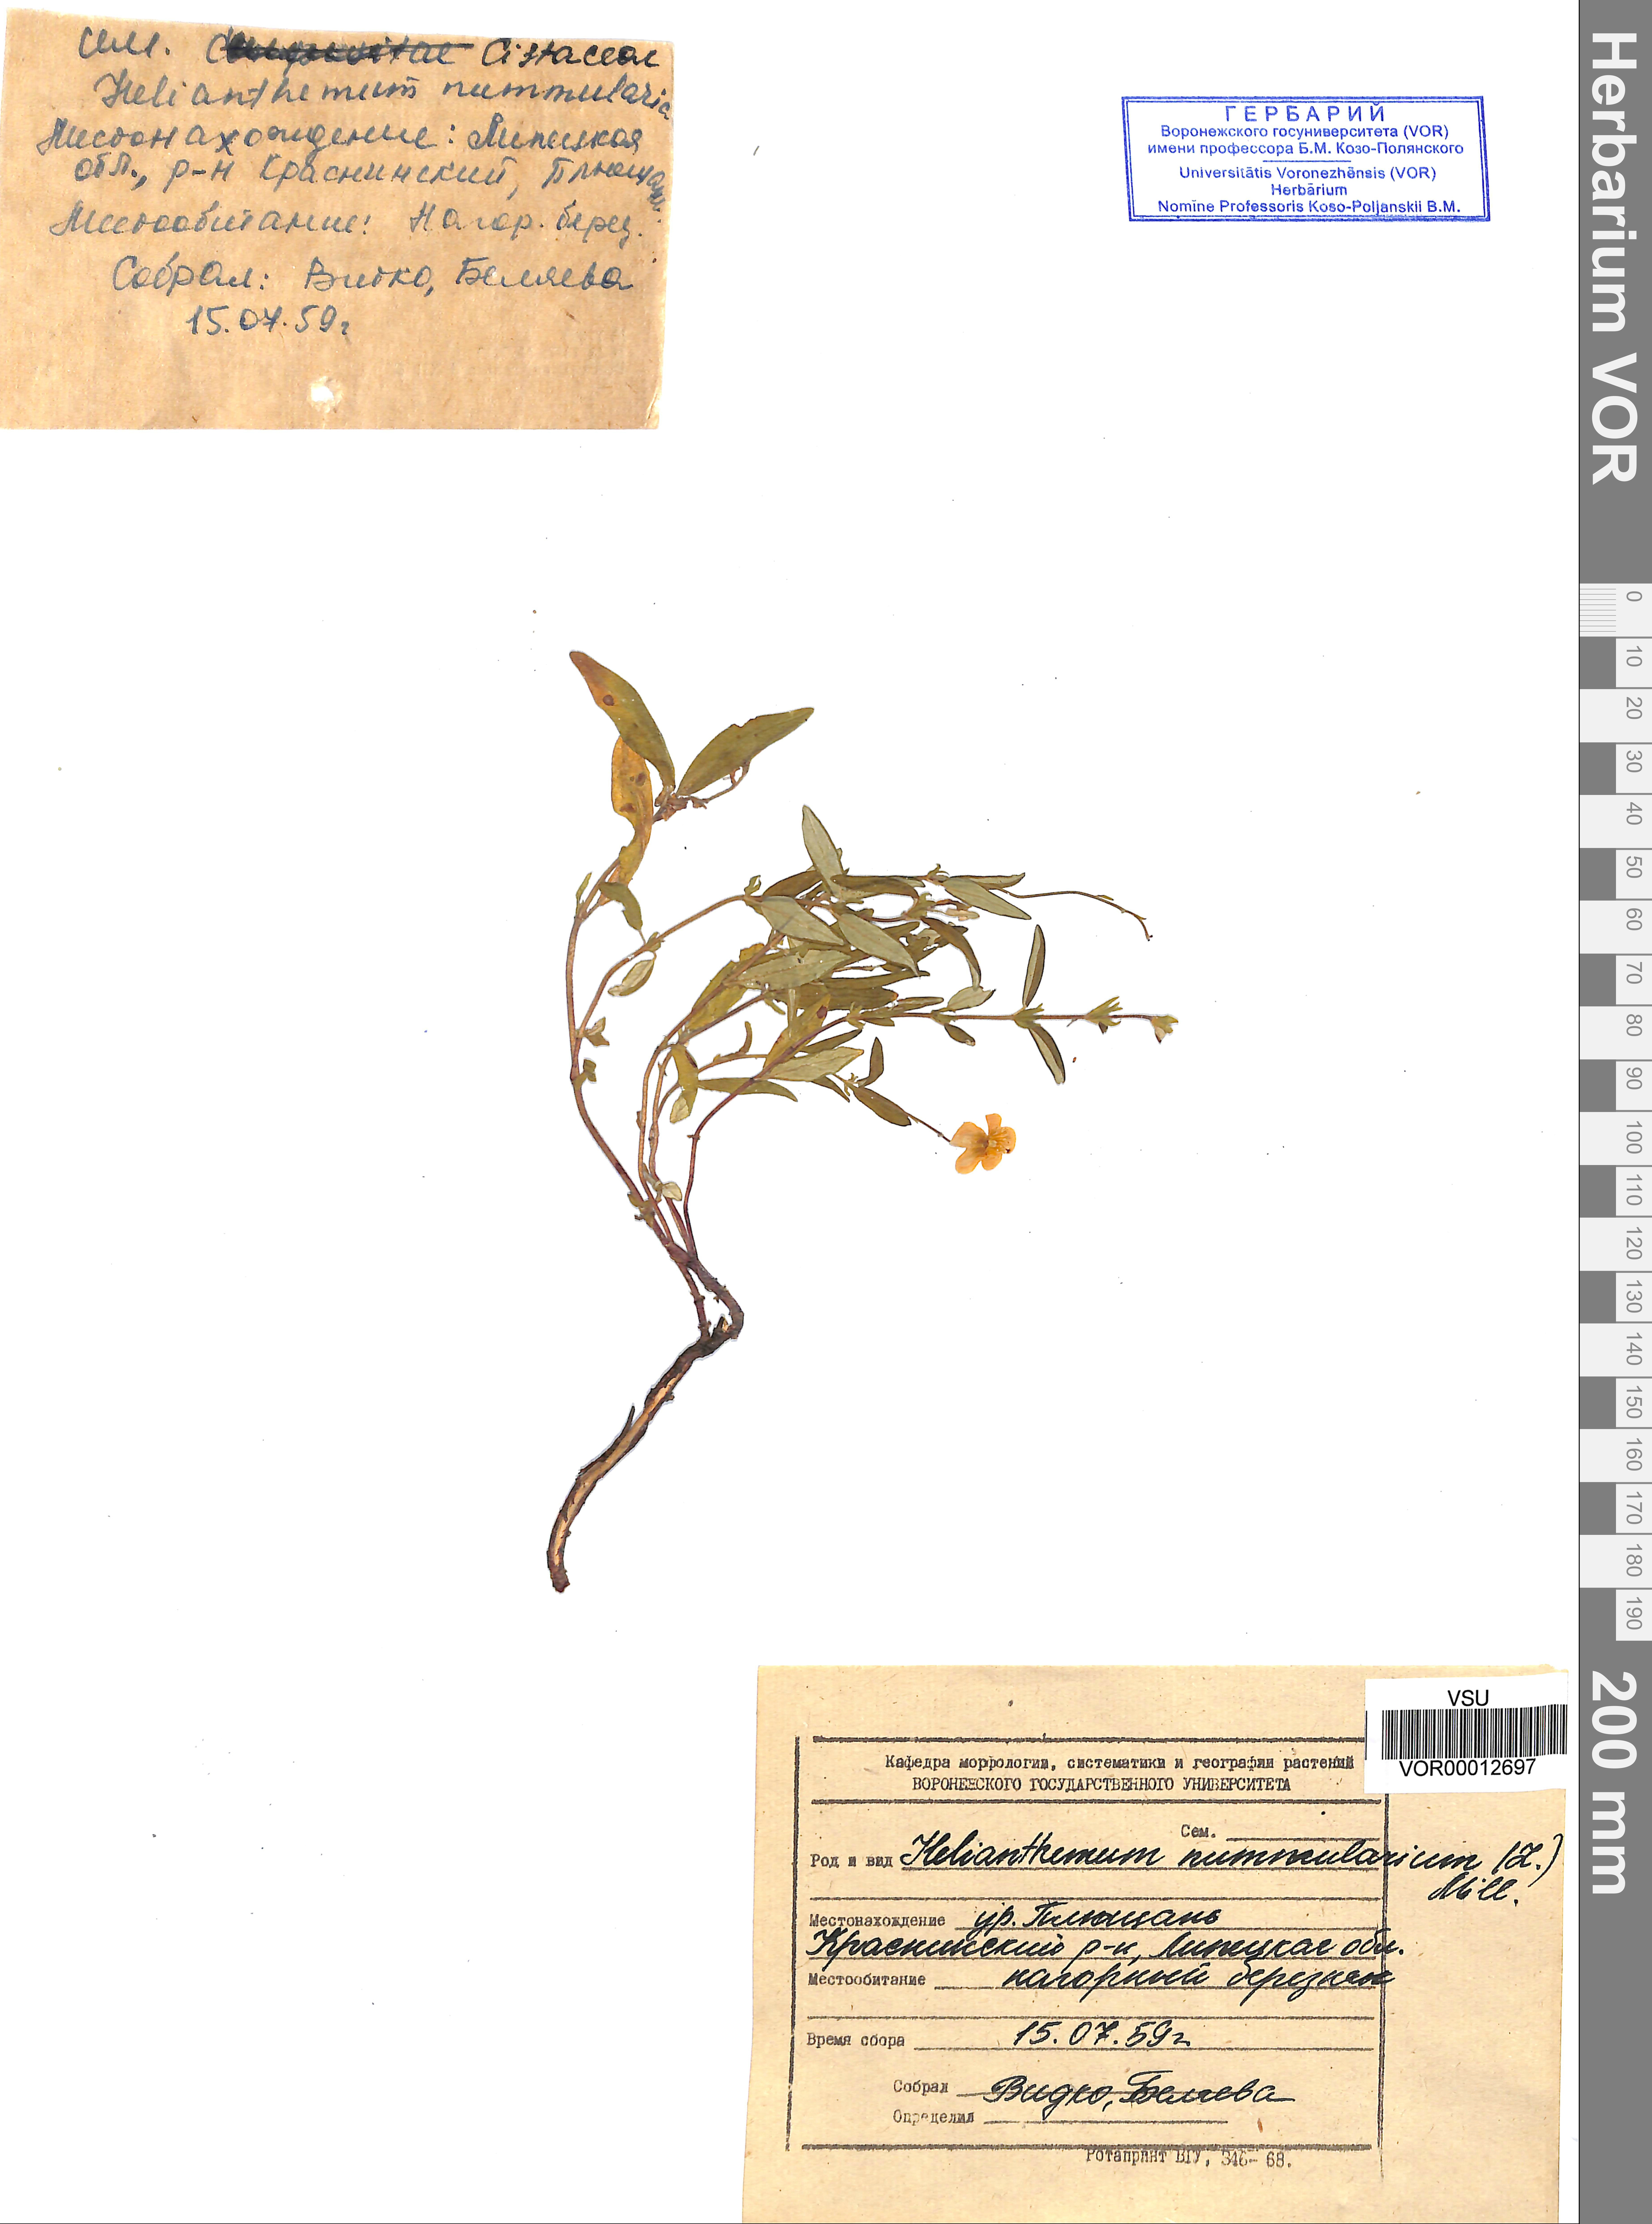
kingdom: Plantae
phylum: Tracheophyta
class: Magnoliopsida
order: Malvales
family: Cistaceae
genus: Helianthemum
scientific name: Helianthemum nummularium
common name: Common rock-rose
